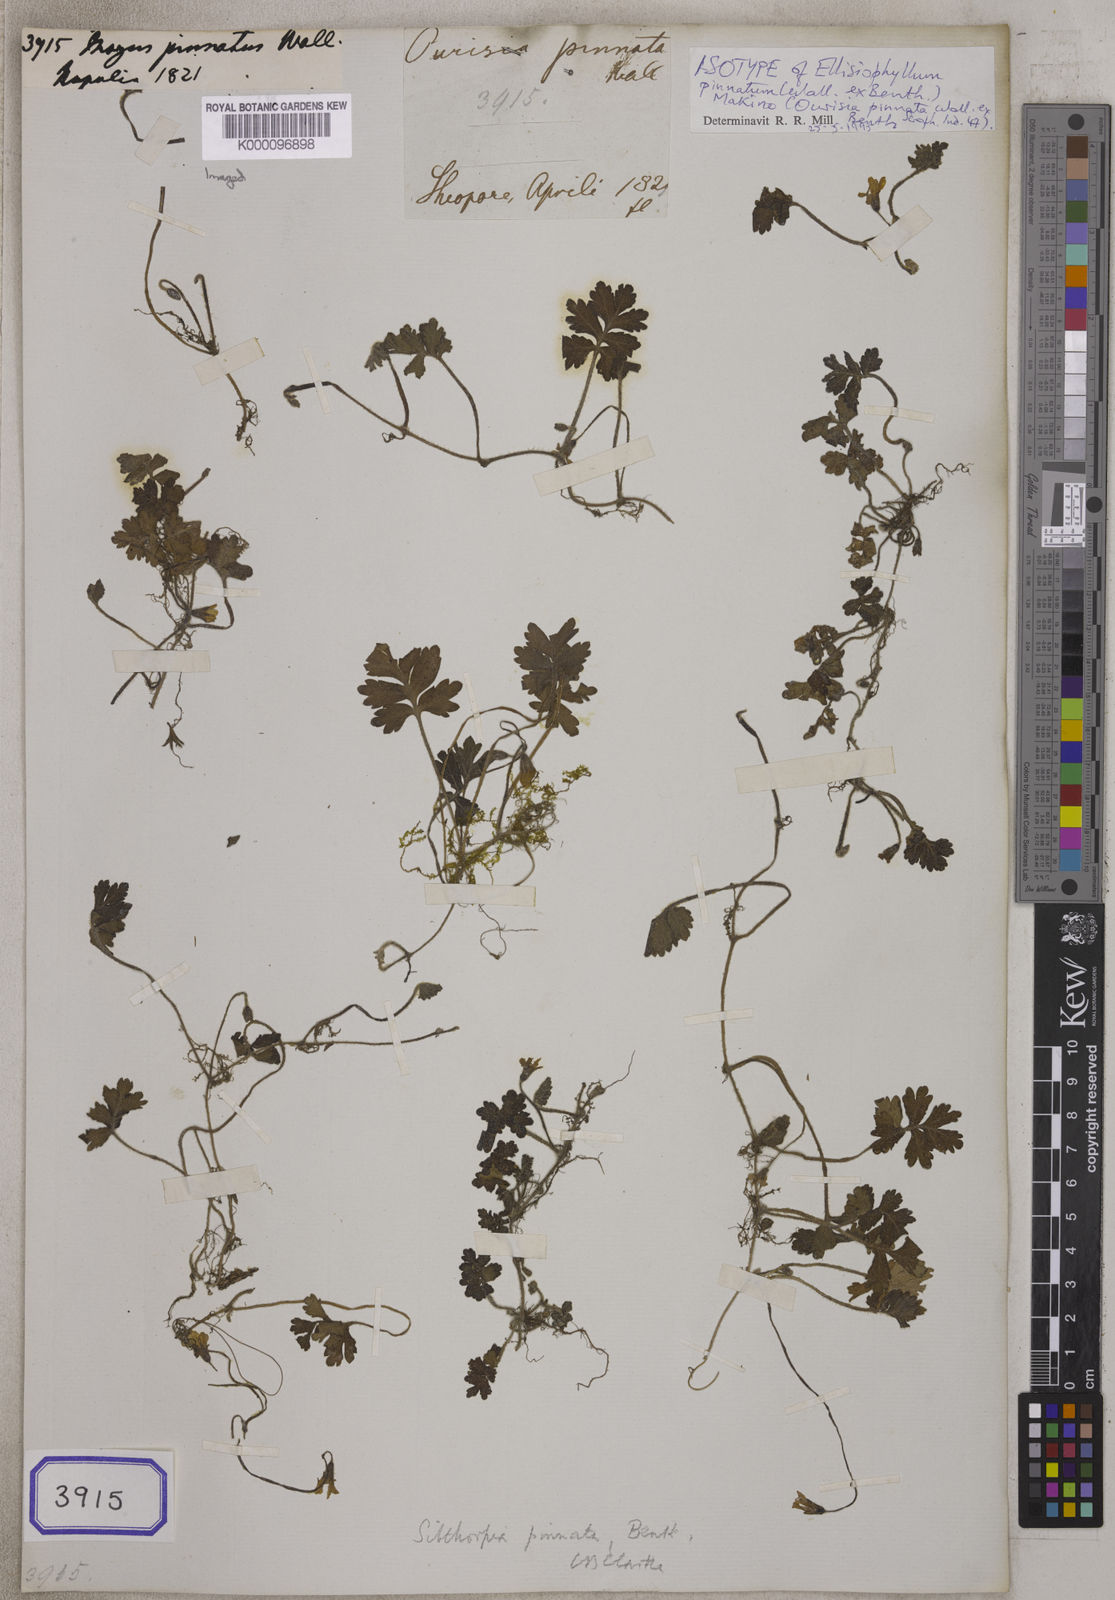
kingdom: Plantae
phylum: Tracheophyta
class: Magnoliopsida
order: Lamiales
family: Plantaginaceae
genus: Ellisiophyllum
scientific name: Ellisiophyllum pinnatum
